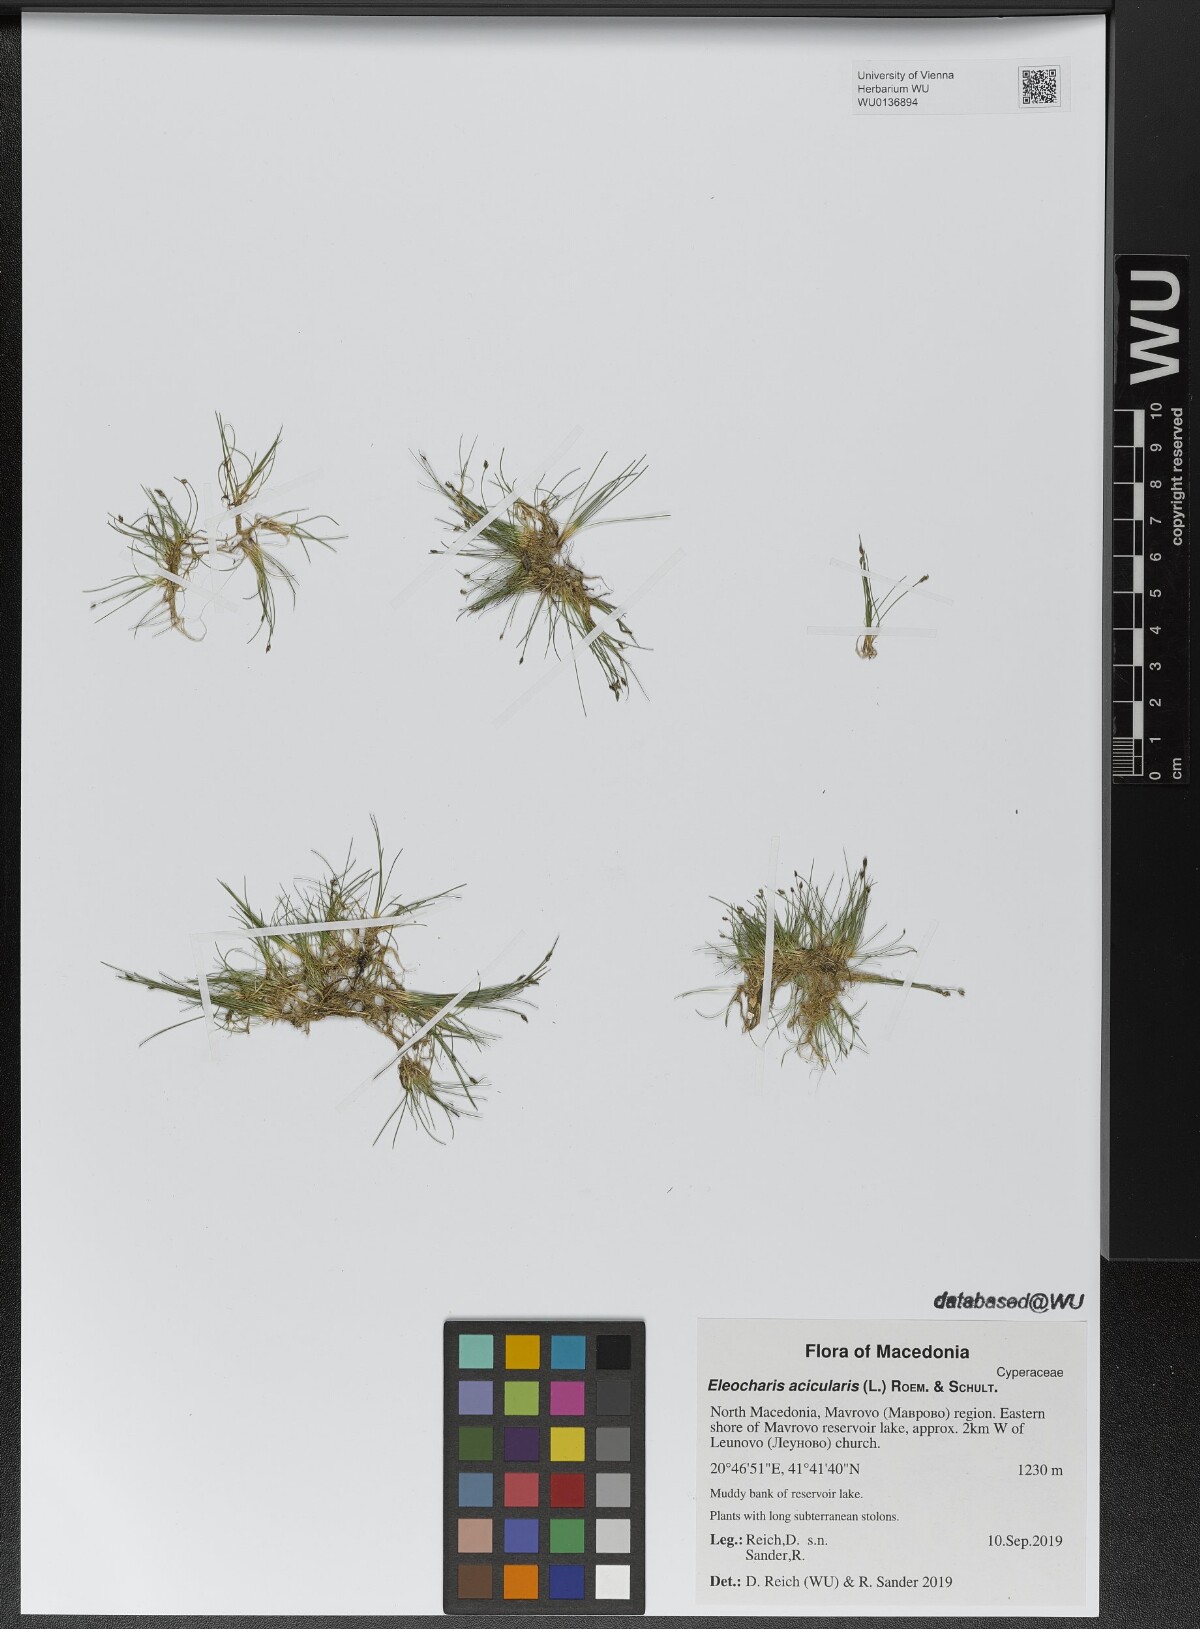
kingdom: Plantae
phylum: Tracheophyta
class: Liliopsida
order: Poales
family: Cyperaceae
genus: Eleocharis
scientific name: Eleocharis acicularis
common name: Needle spike-rush
